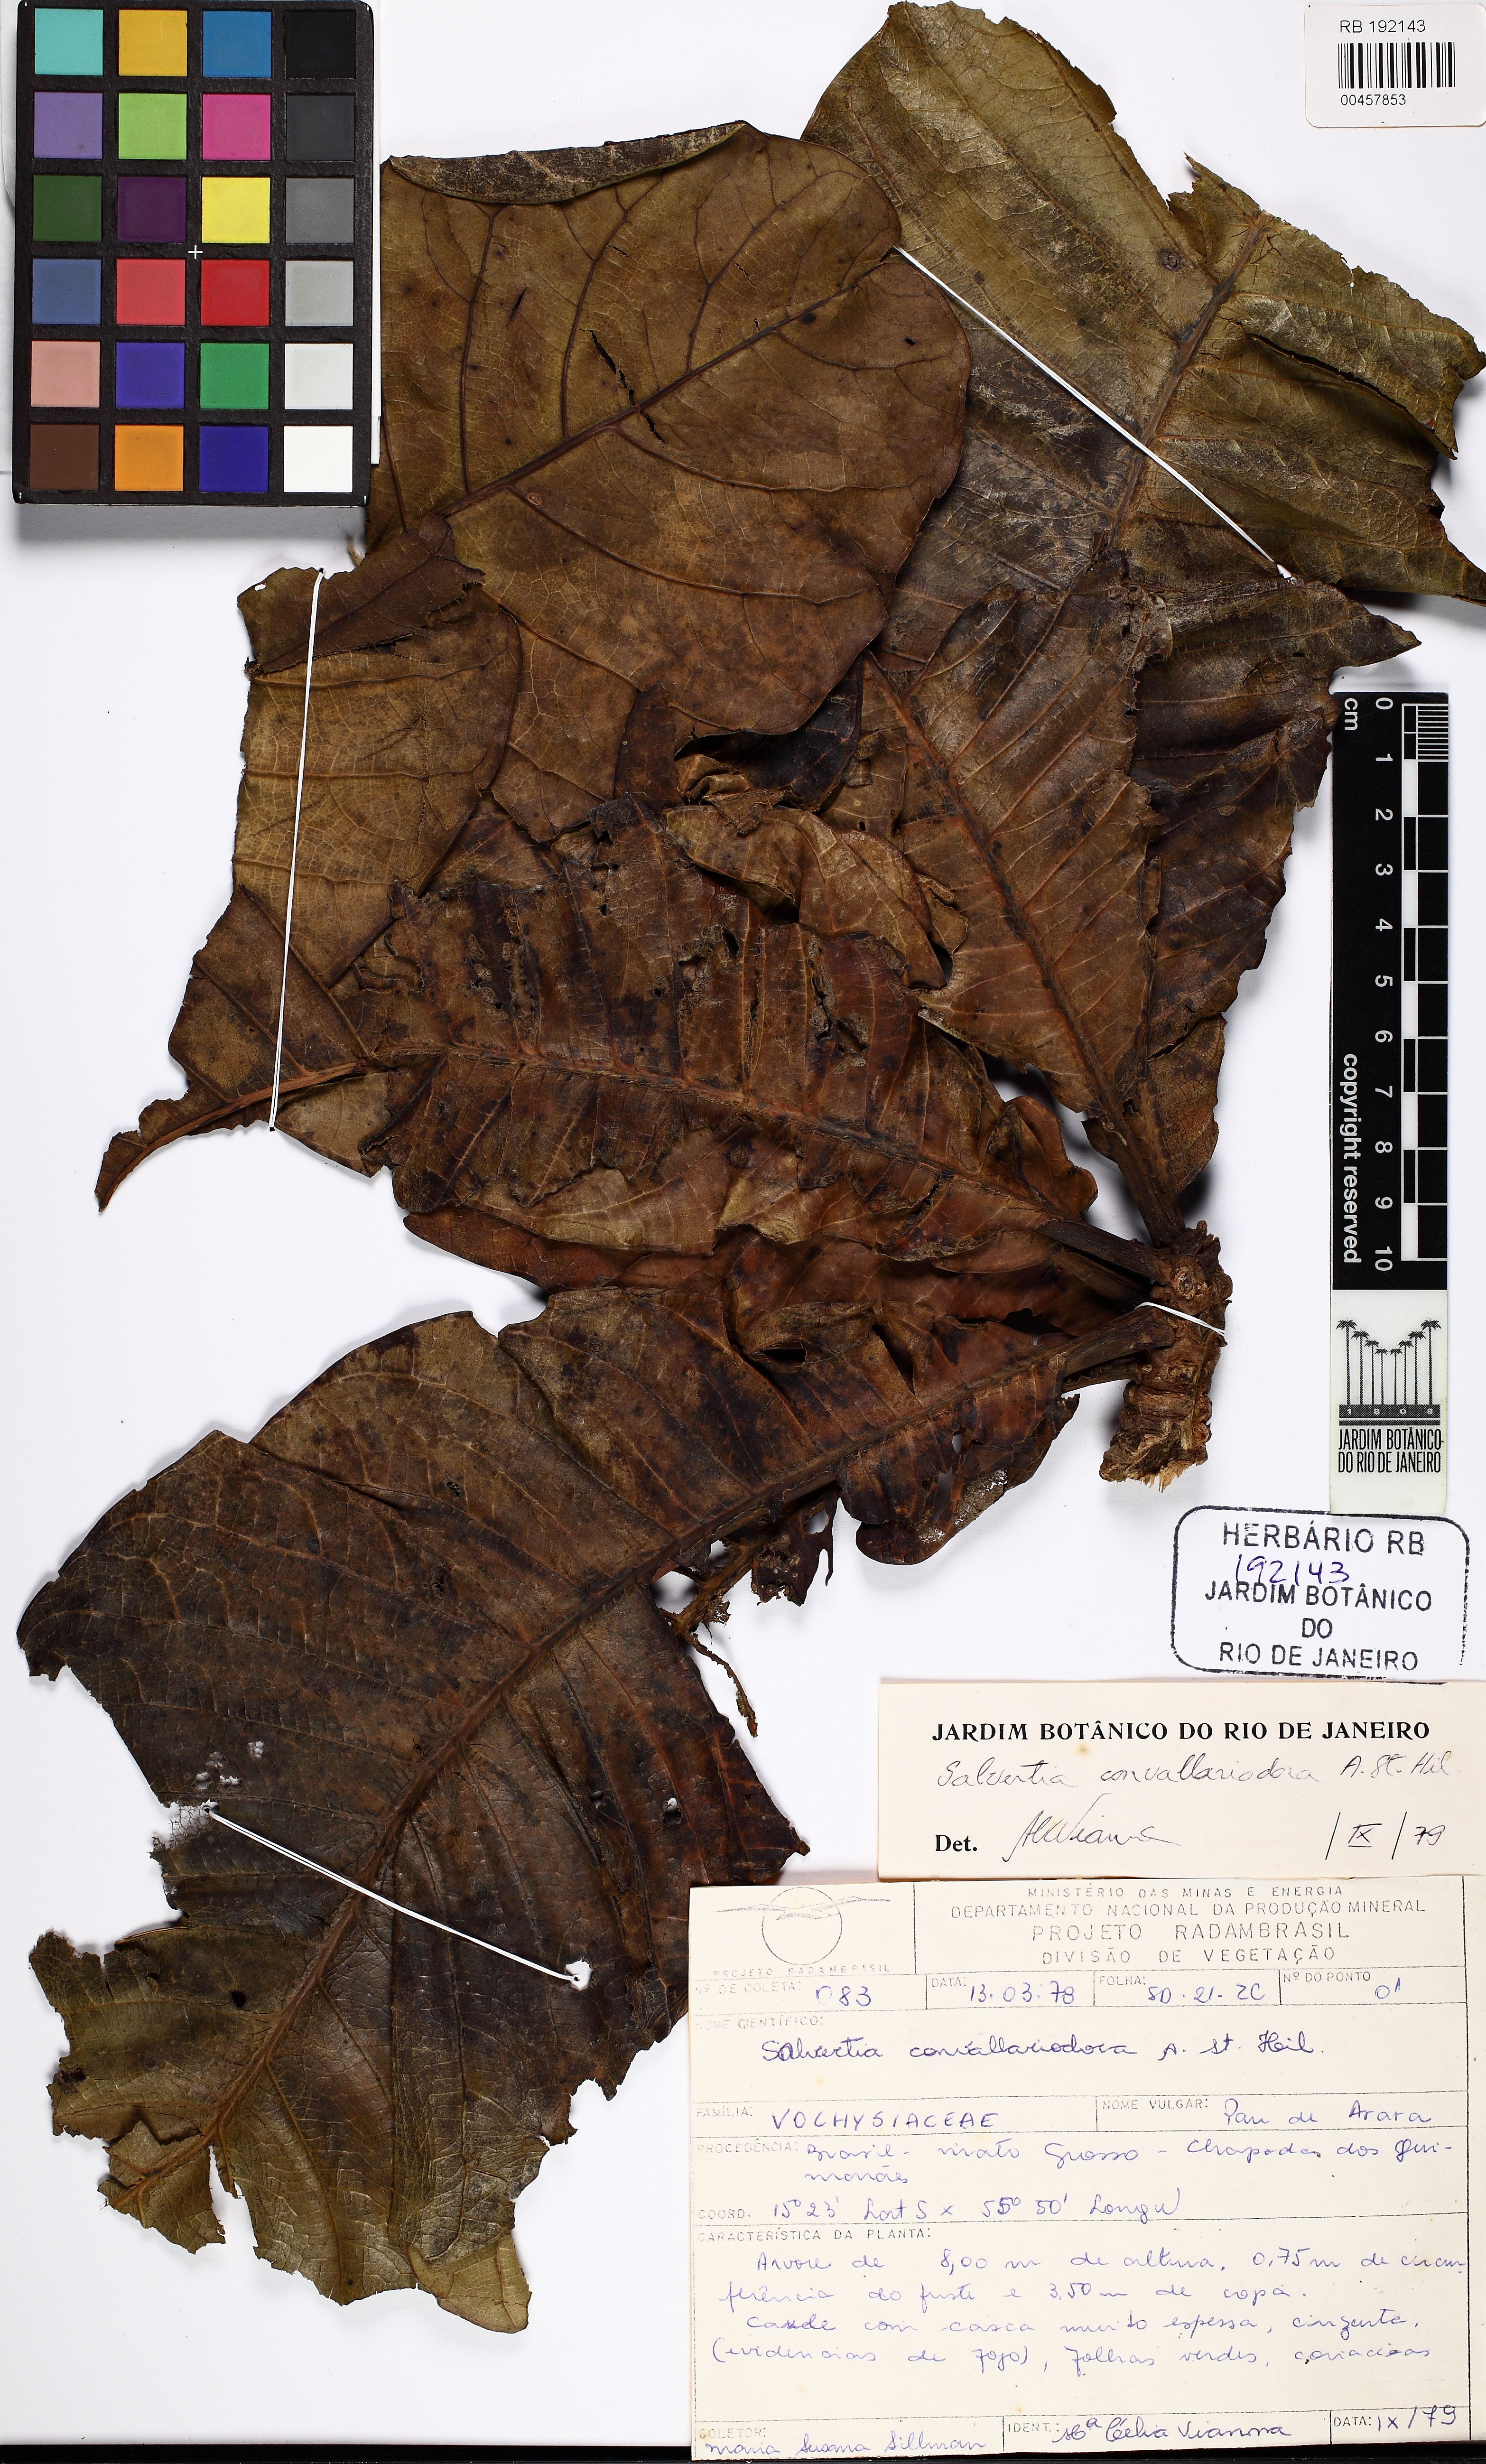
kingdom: Plantae
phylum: Tracheophyta
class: Magnoliopsida
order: Myrtales
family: Vochysiaceae
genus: Salvertia
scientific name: Salvertia convallariodora
